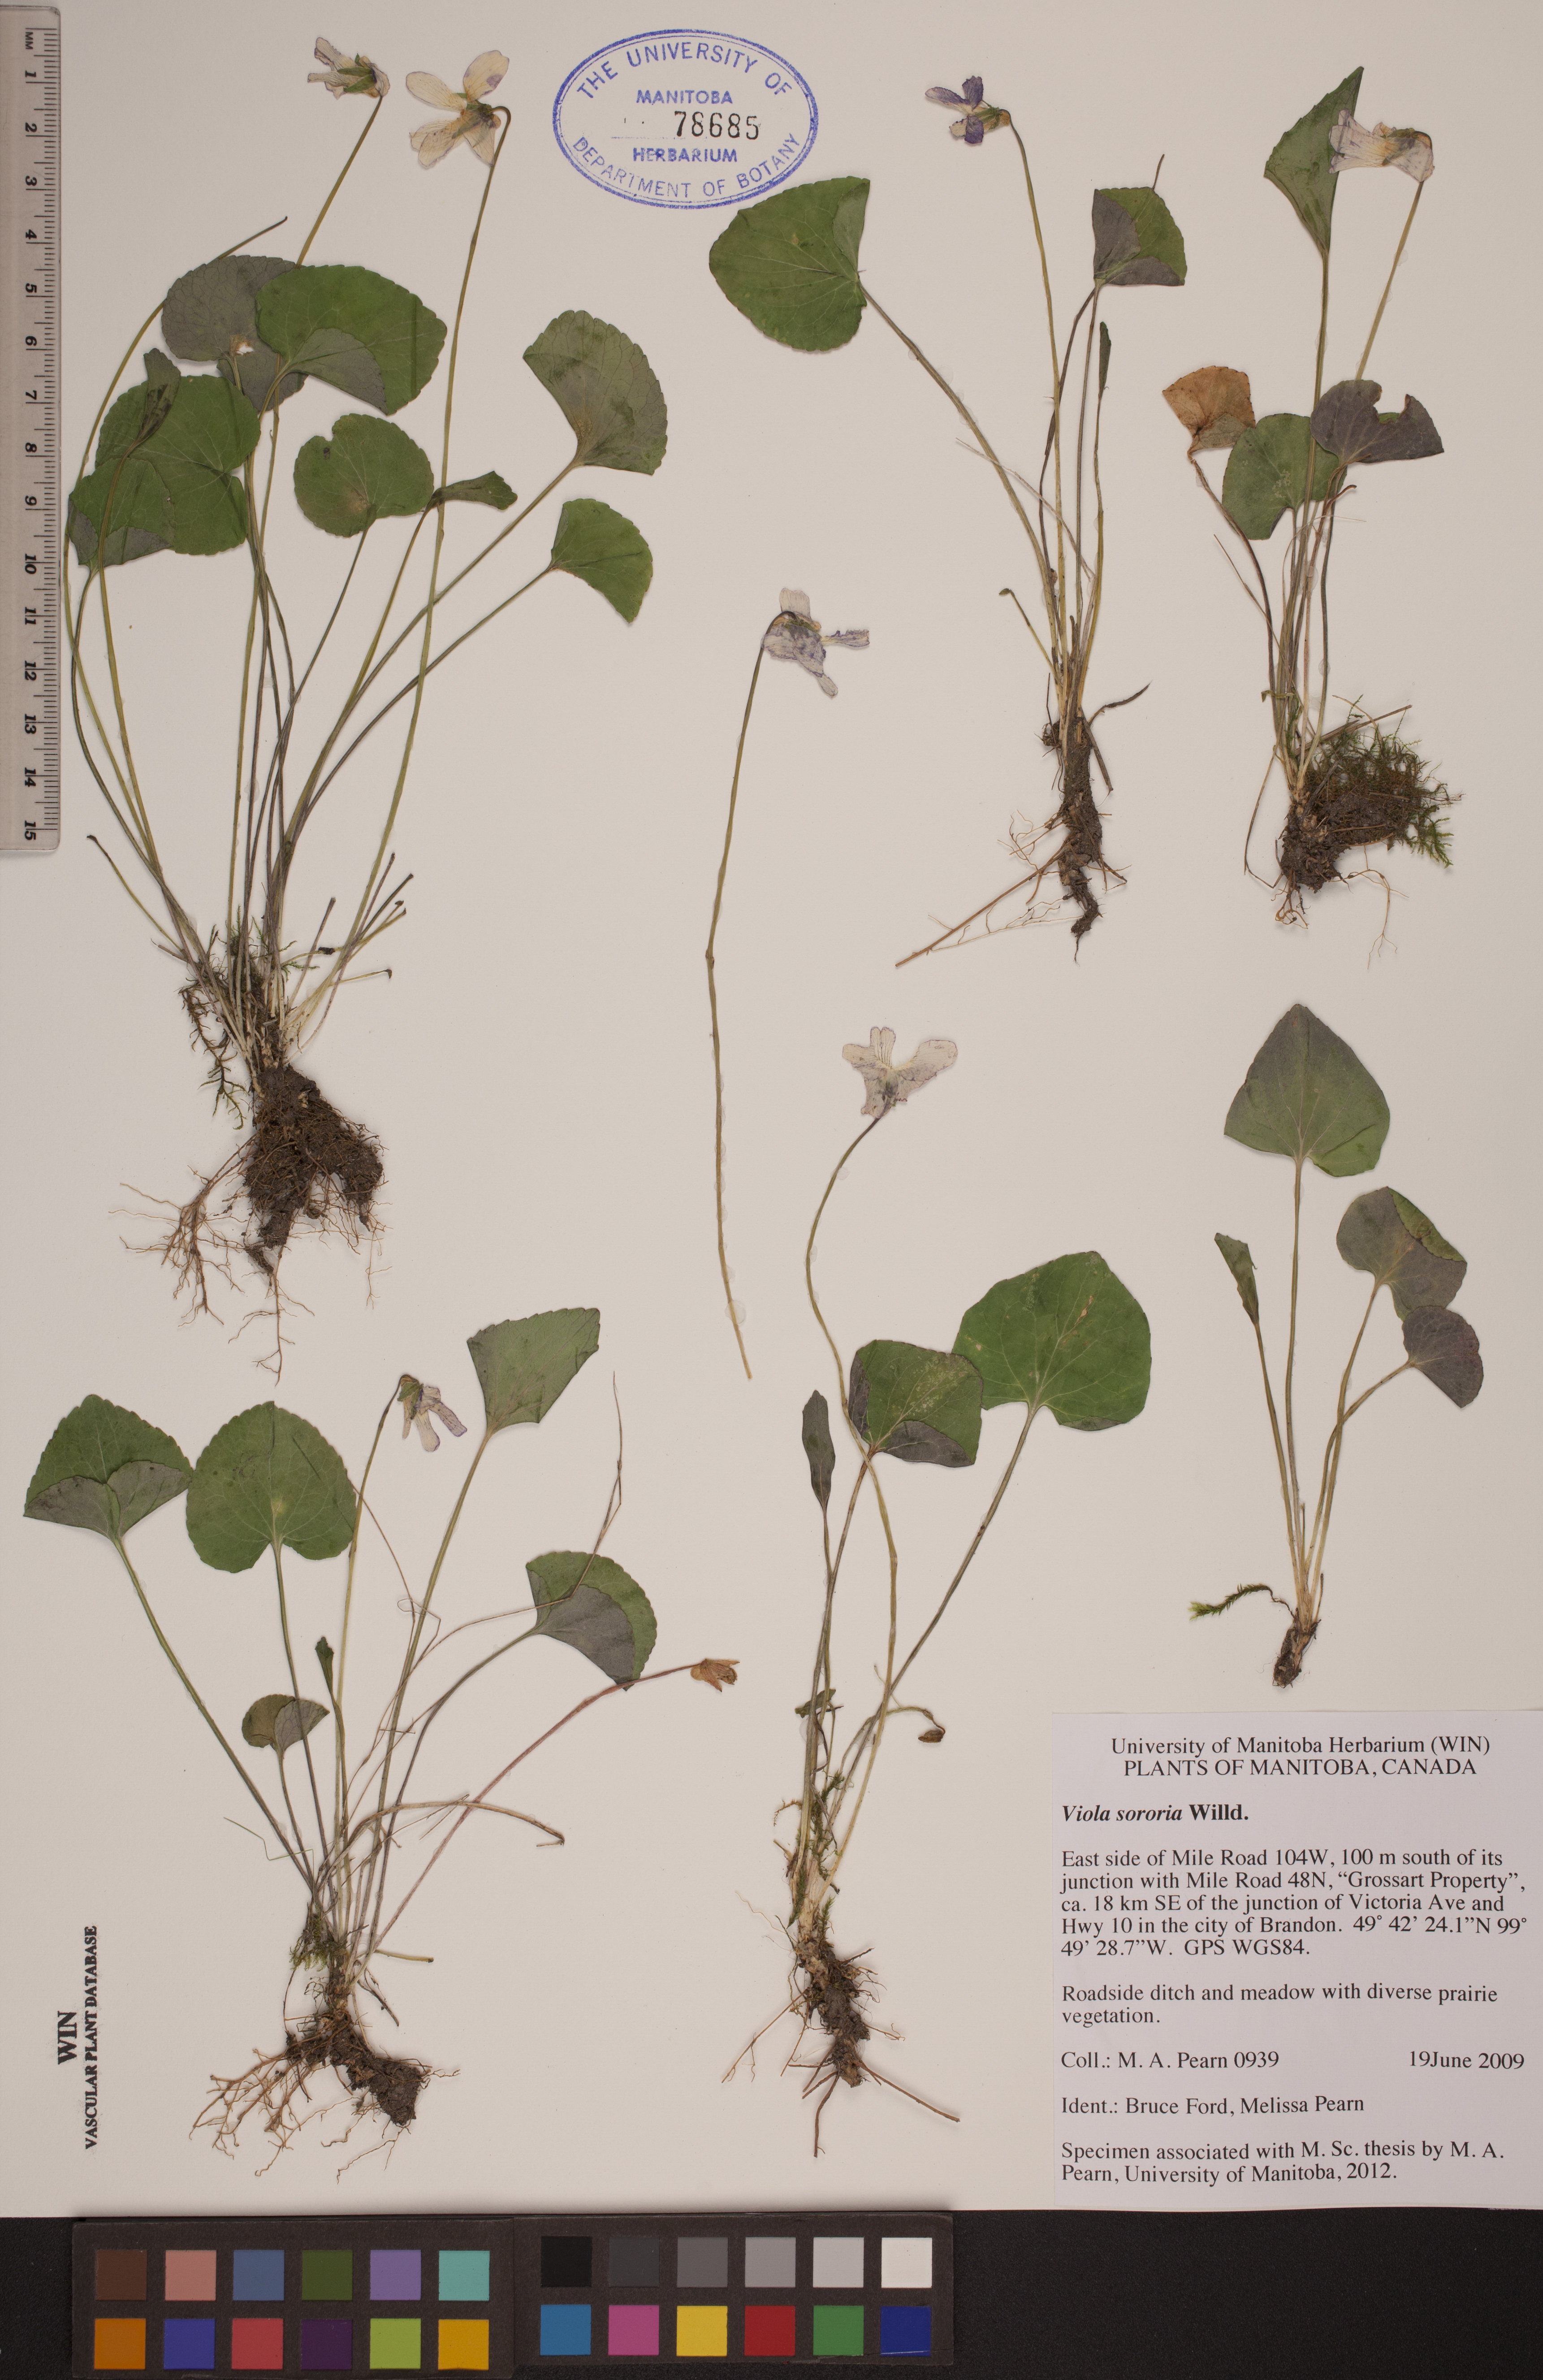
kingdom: Plantae
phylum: Tracheophyta
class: Magnoliopsida
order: Malpighiales
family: Violaceae
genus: Viola
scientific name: Viola sororia
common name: Dooryard violet
